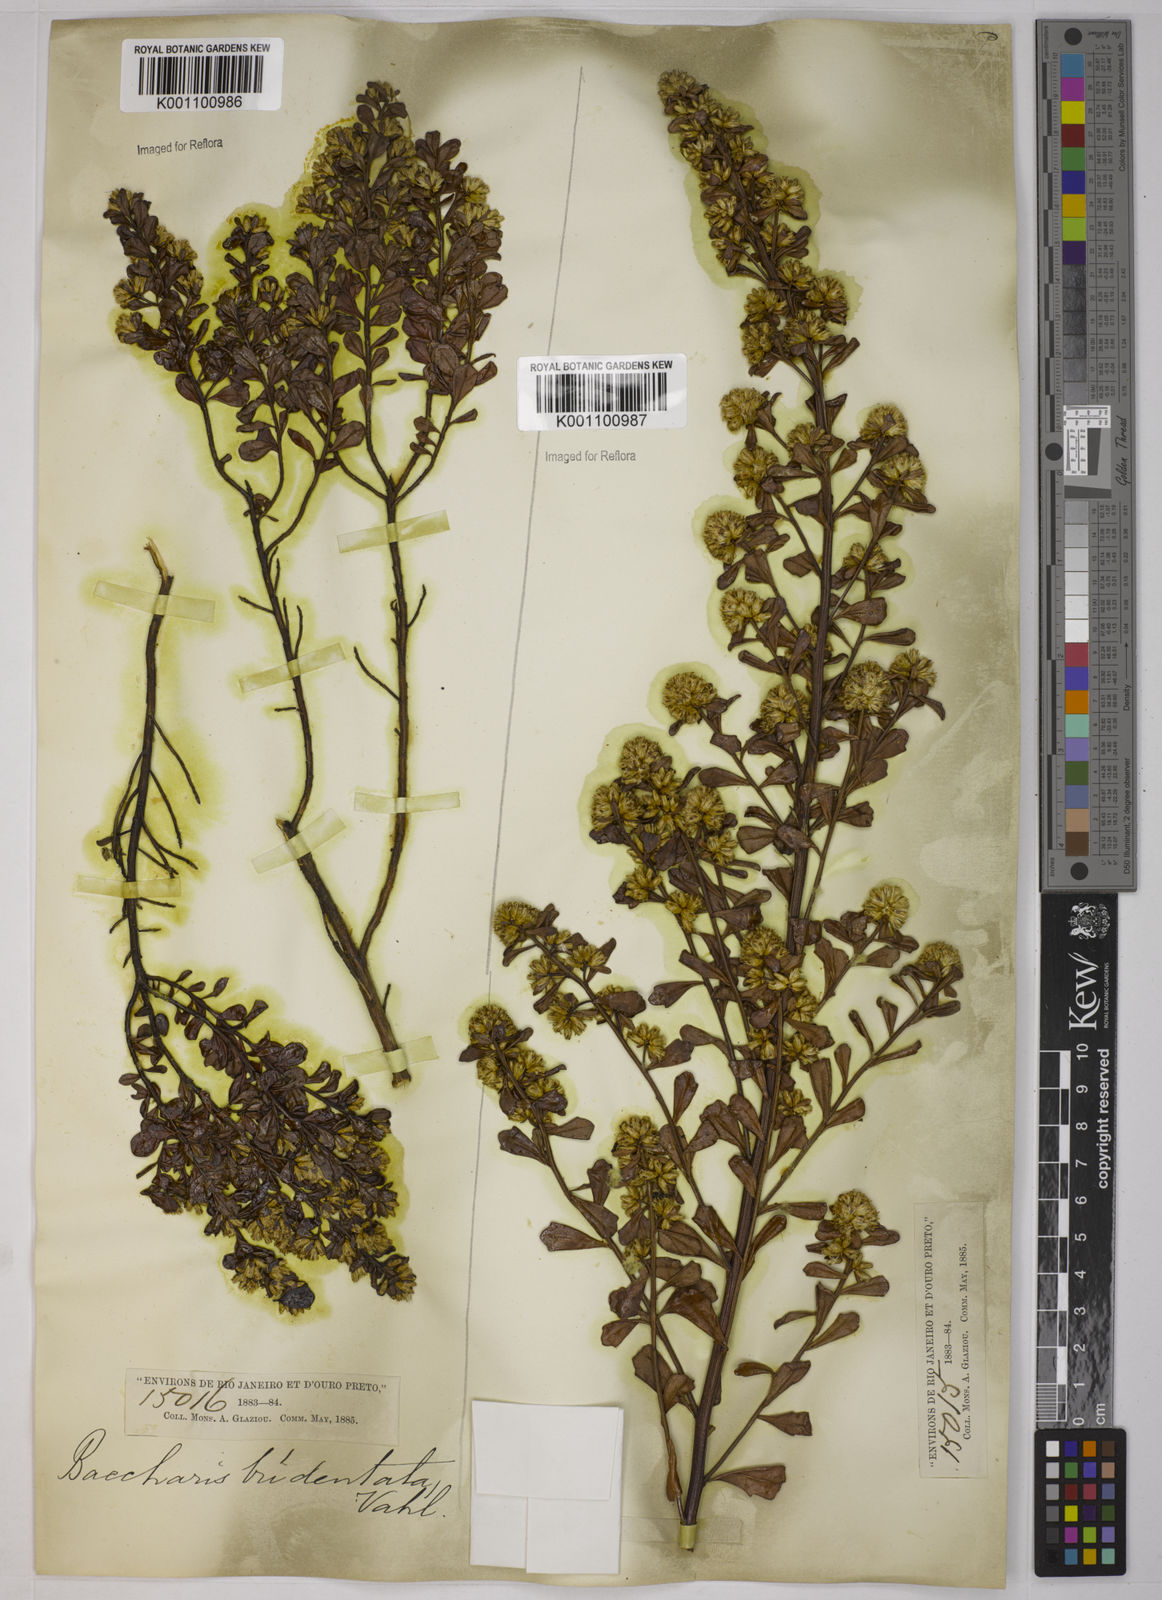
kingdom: Plantae
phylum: Tracheophyta
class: Magnoliopsida
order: Asterales
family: Asteraceae
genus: Baccharis
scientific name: Baccharis tridentata
